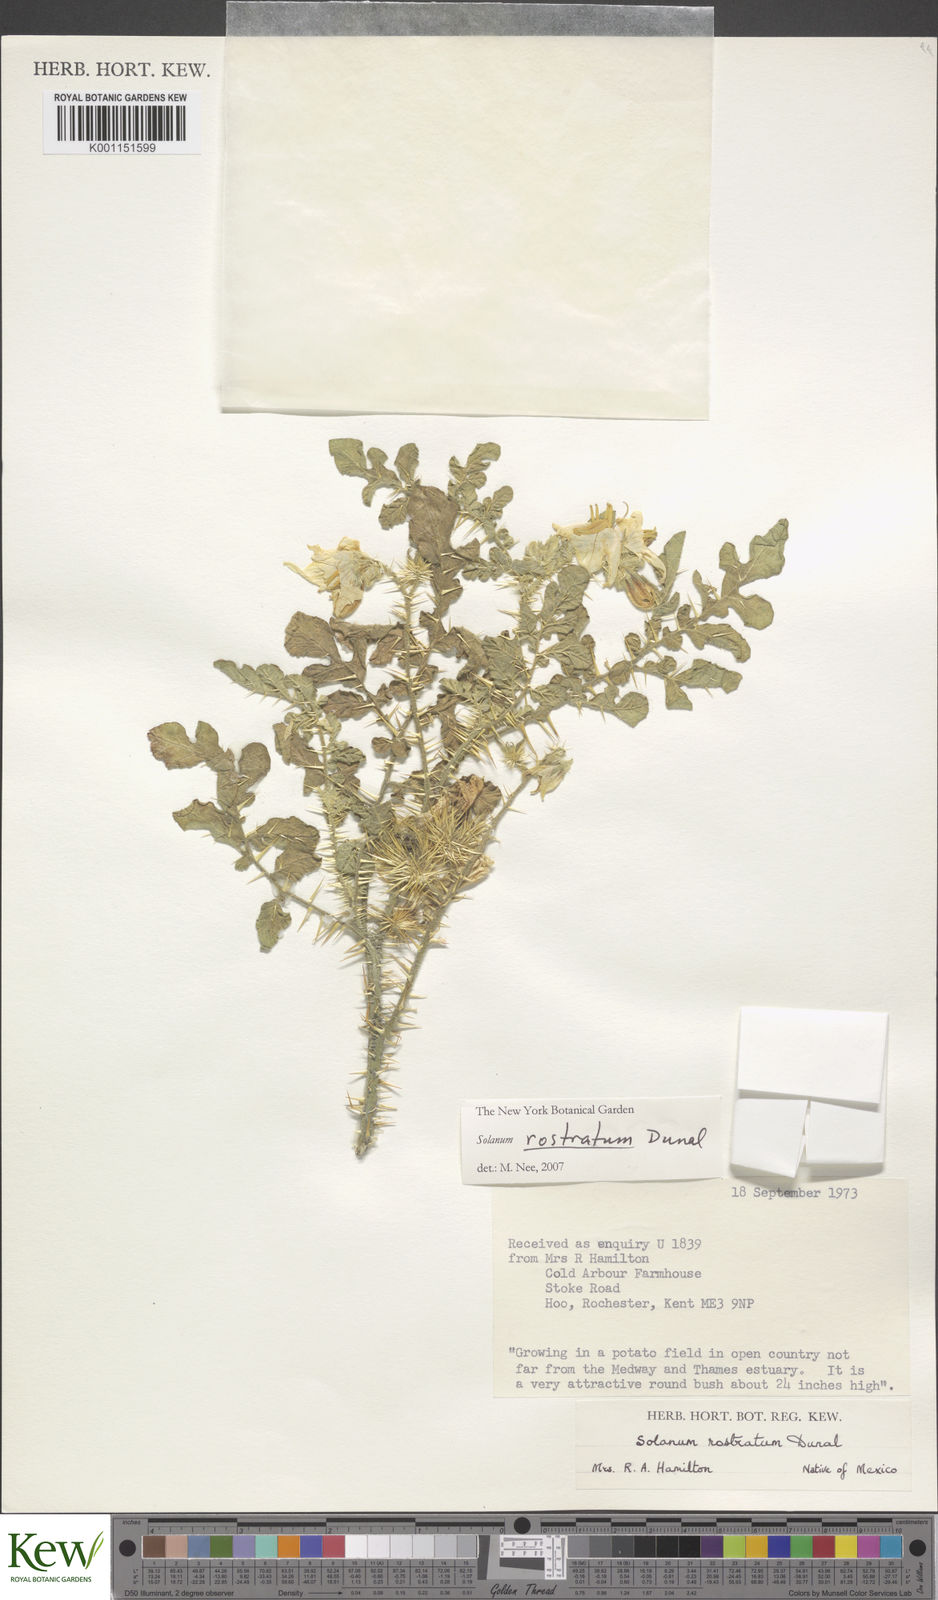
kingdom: Plantae
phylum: Tracheophyta
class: Magnoliopsida
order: Solanales
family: Solanaceae
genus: Solanum
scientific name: Solanum angustifolium
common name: Buffalobur nightshade
